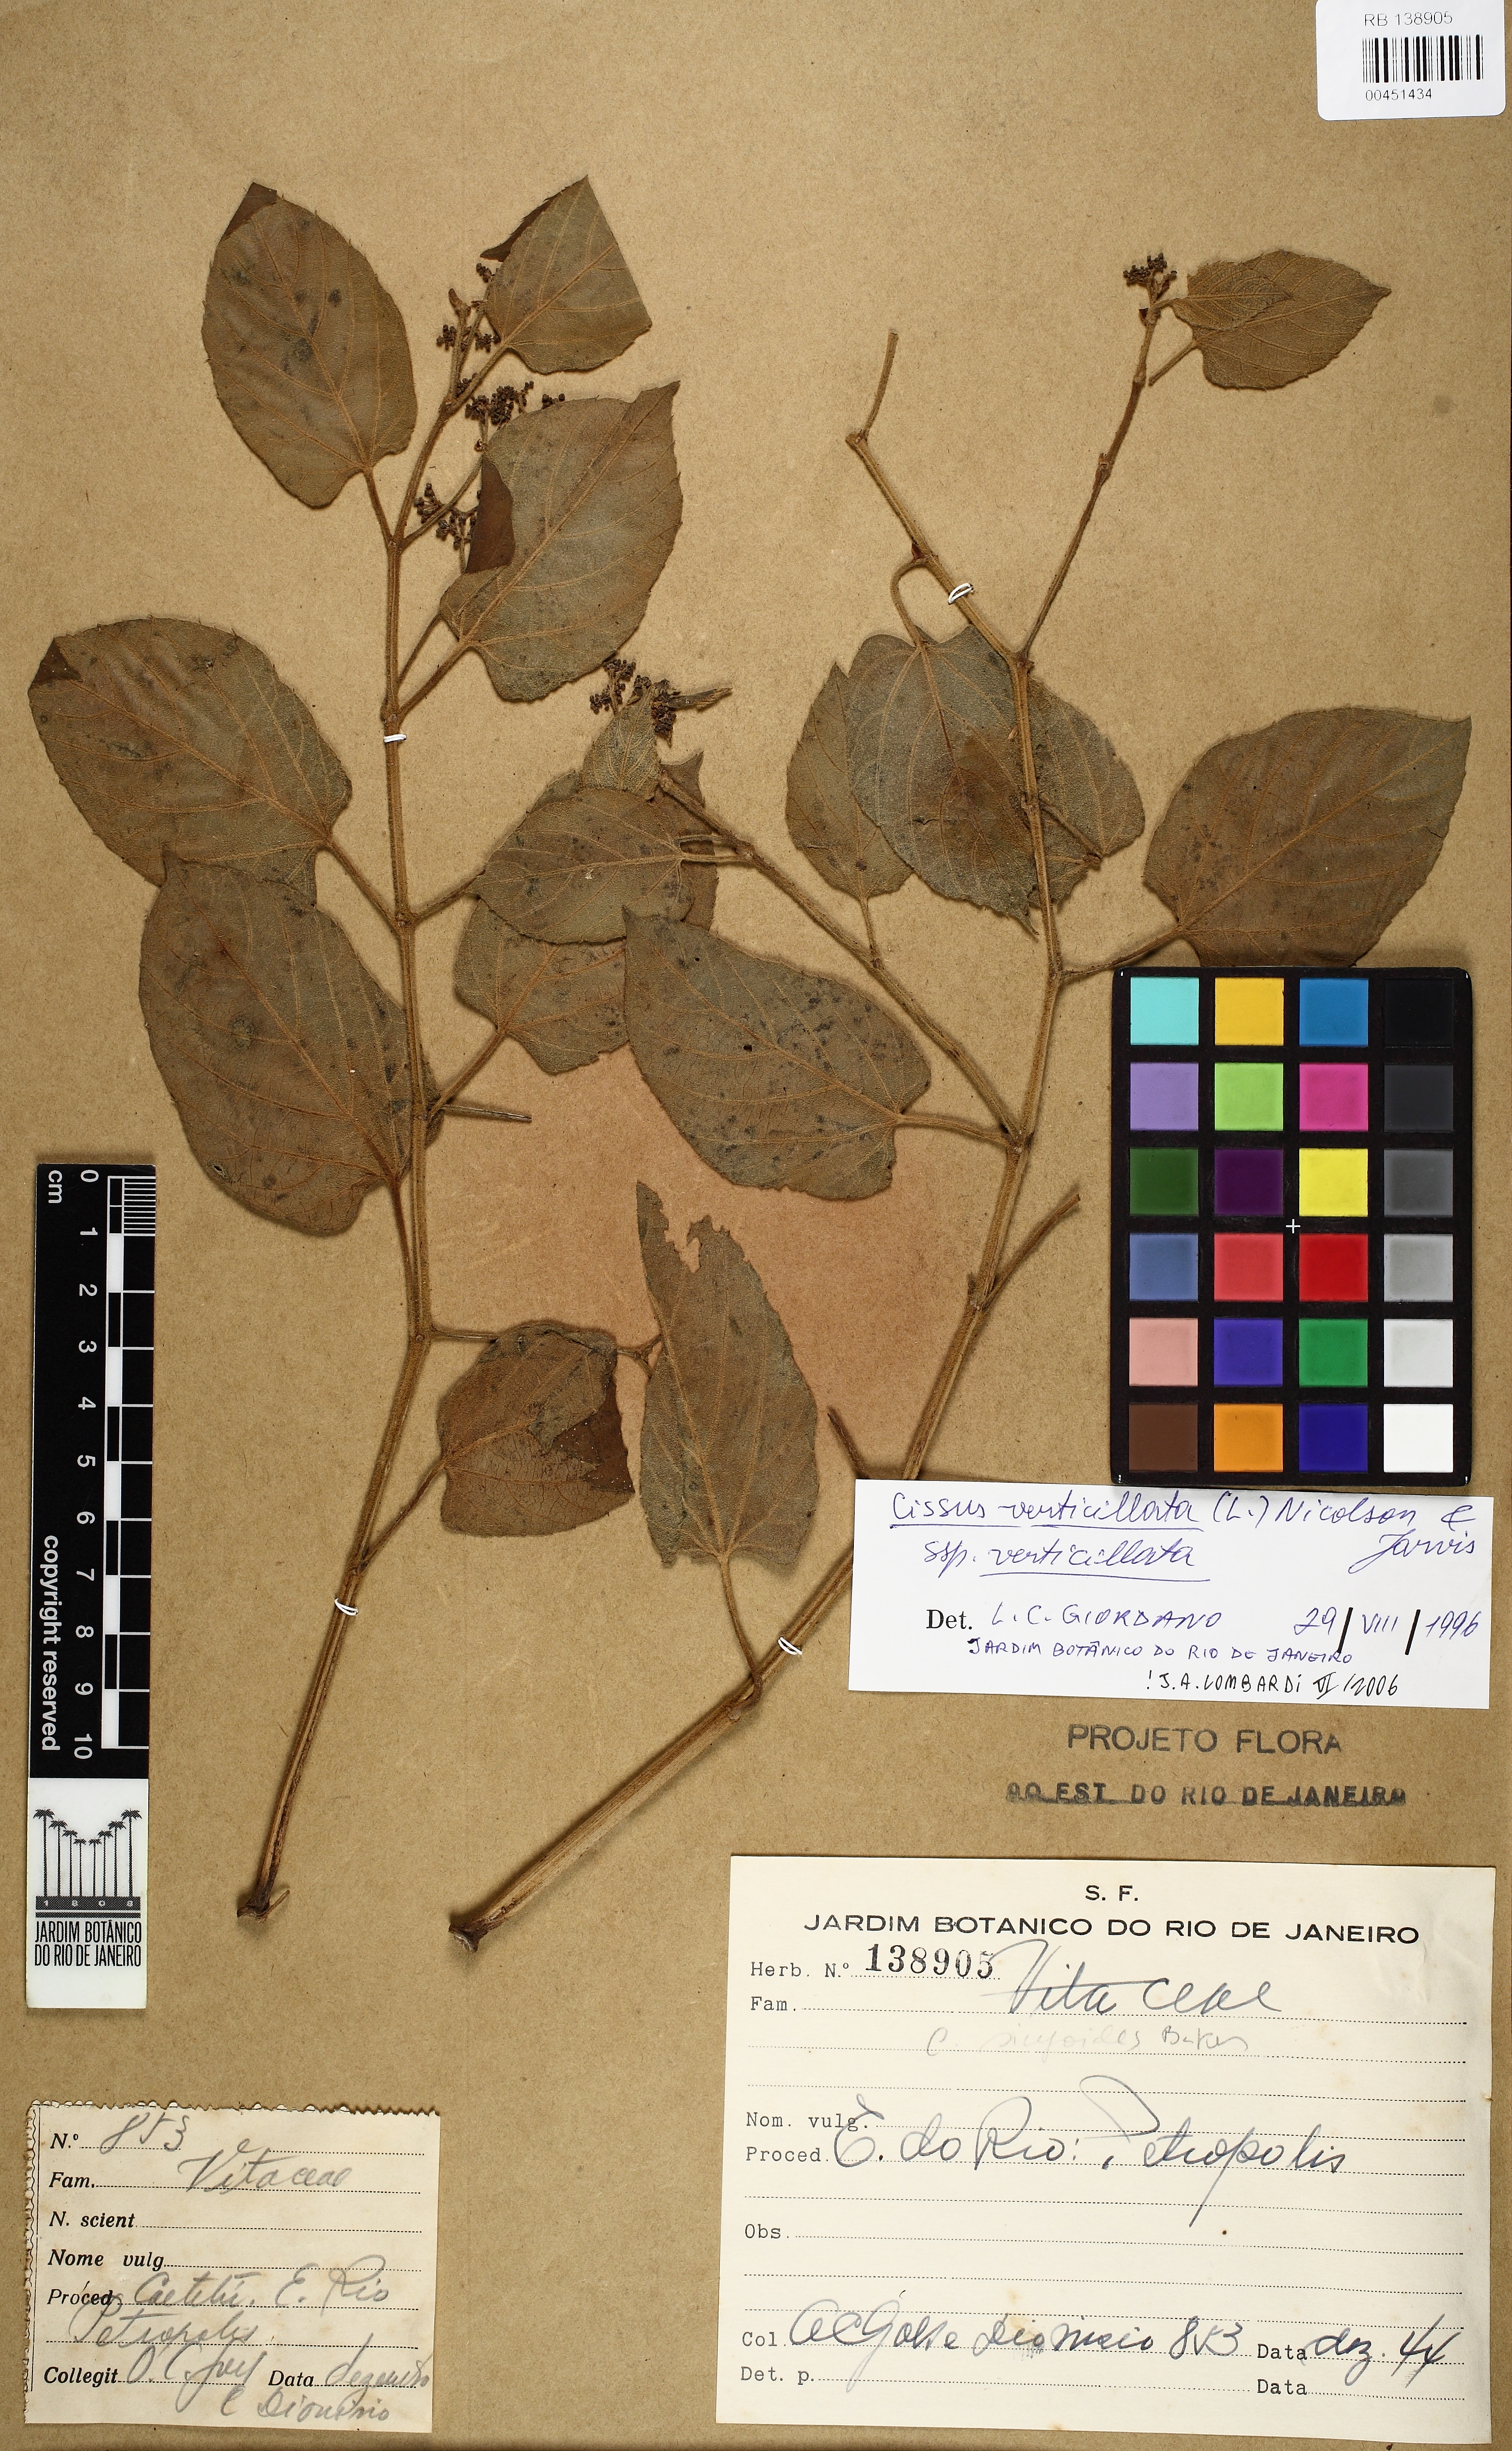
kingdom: Plantae
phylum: Tracheophyta
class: Magnoliopsida
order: Vitales
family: Vitaceae
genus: Cissus
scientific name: Cissus verticillata
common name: Princess vine
